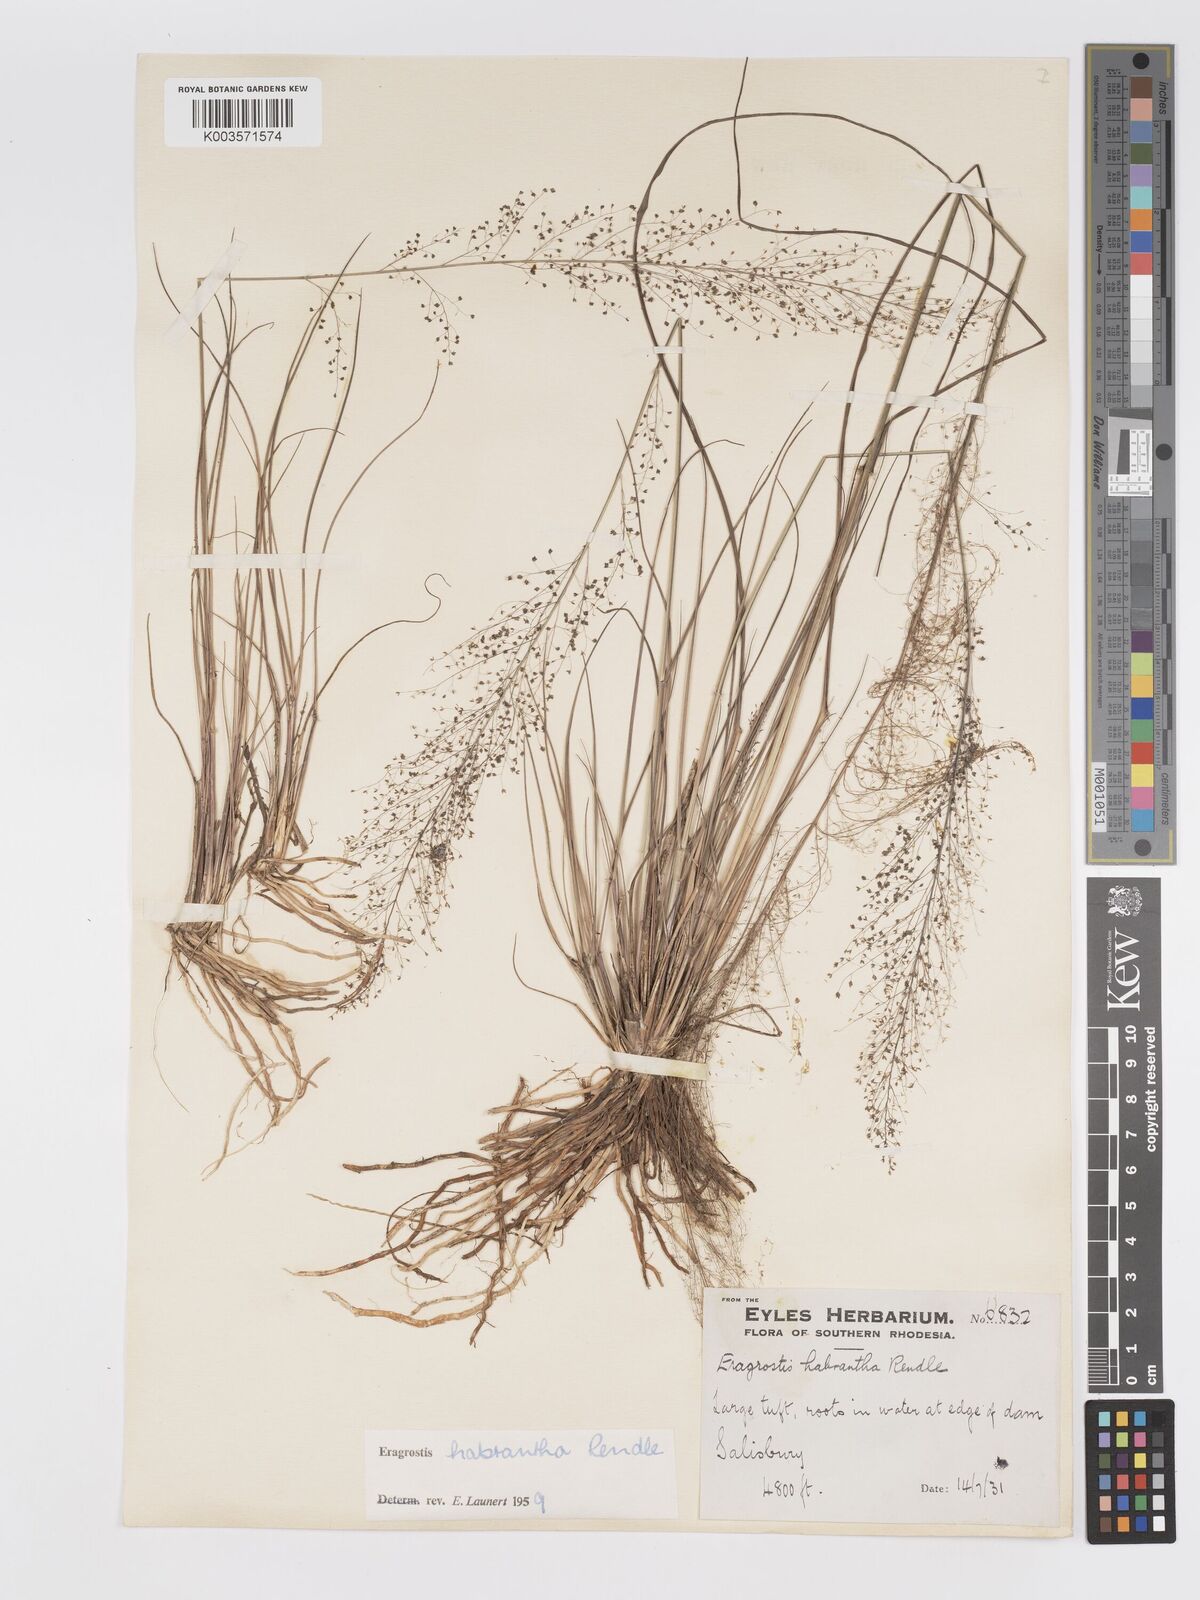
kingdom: Plantae
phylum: Tracheophyta
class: Liliopsida
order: Poales
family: Poaceae
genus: Eragrostis
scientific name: Eragrostis habrantha
